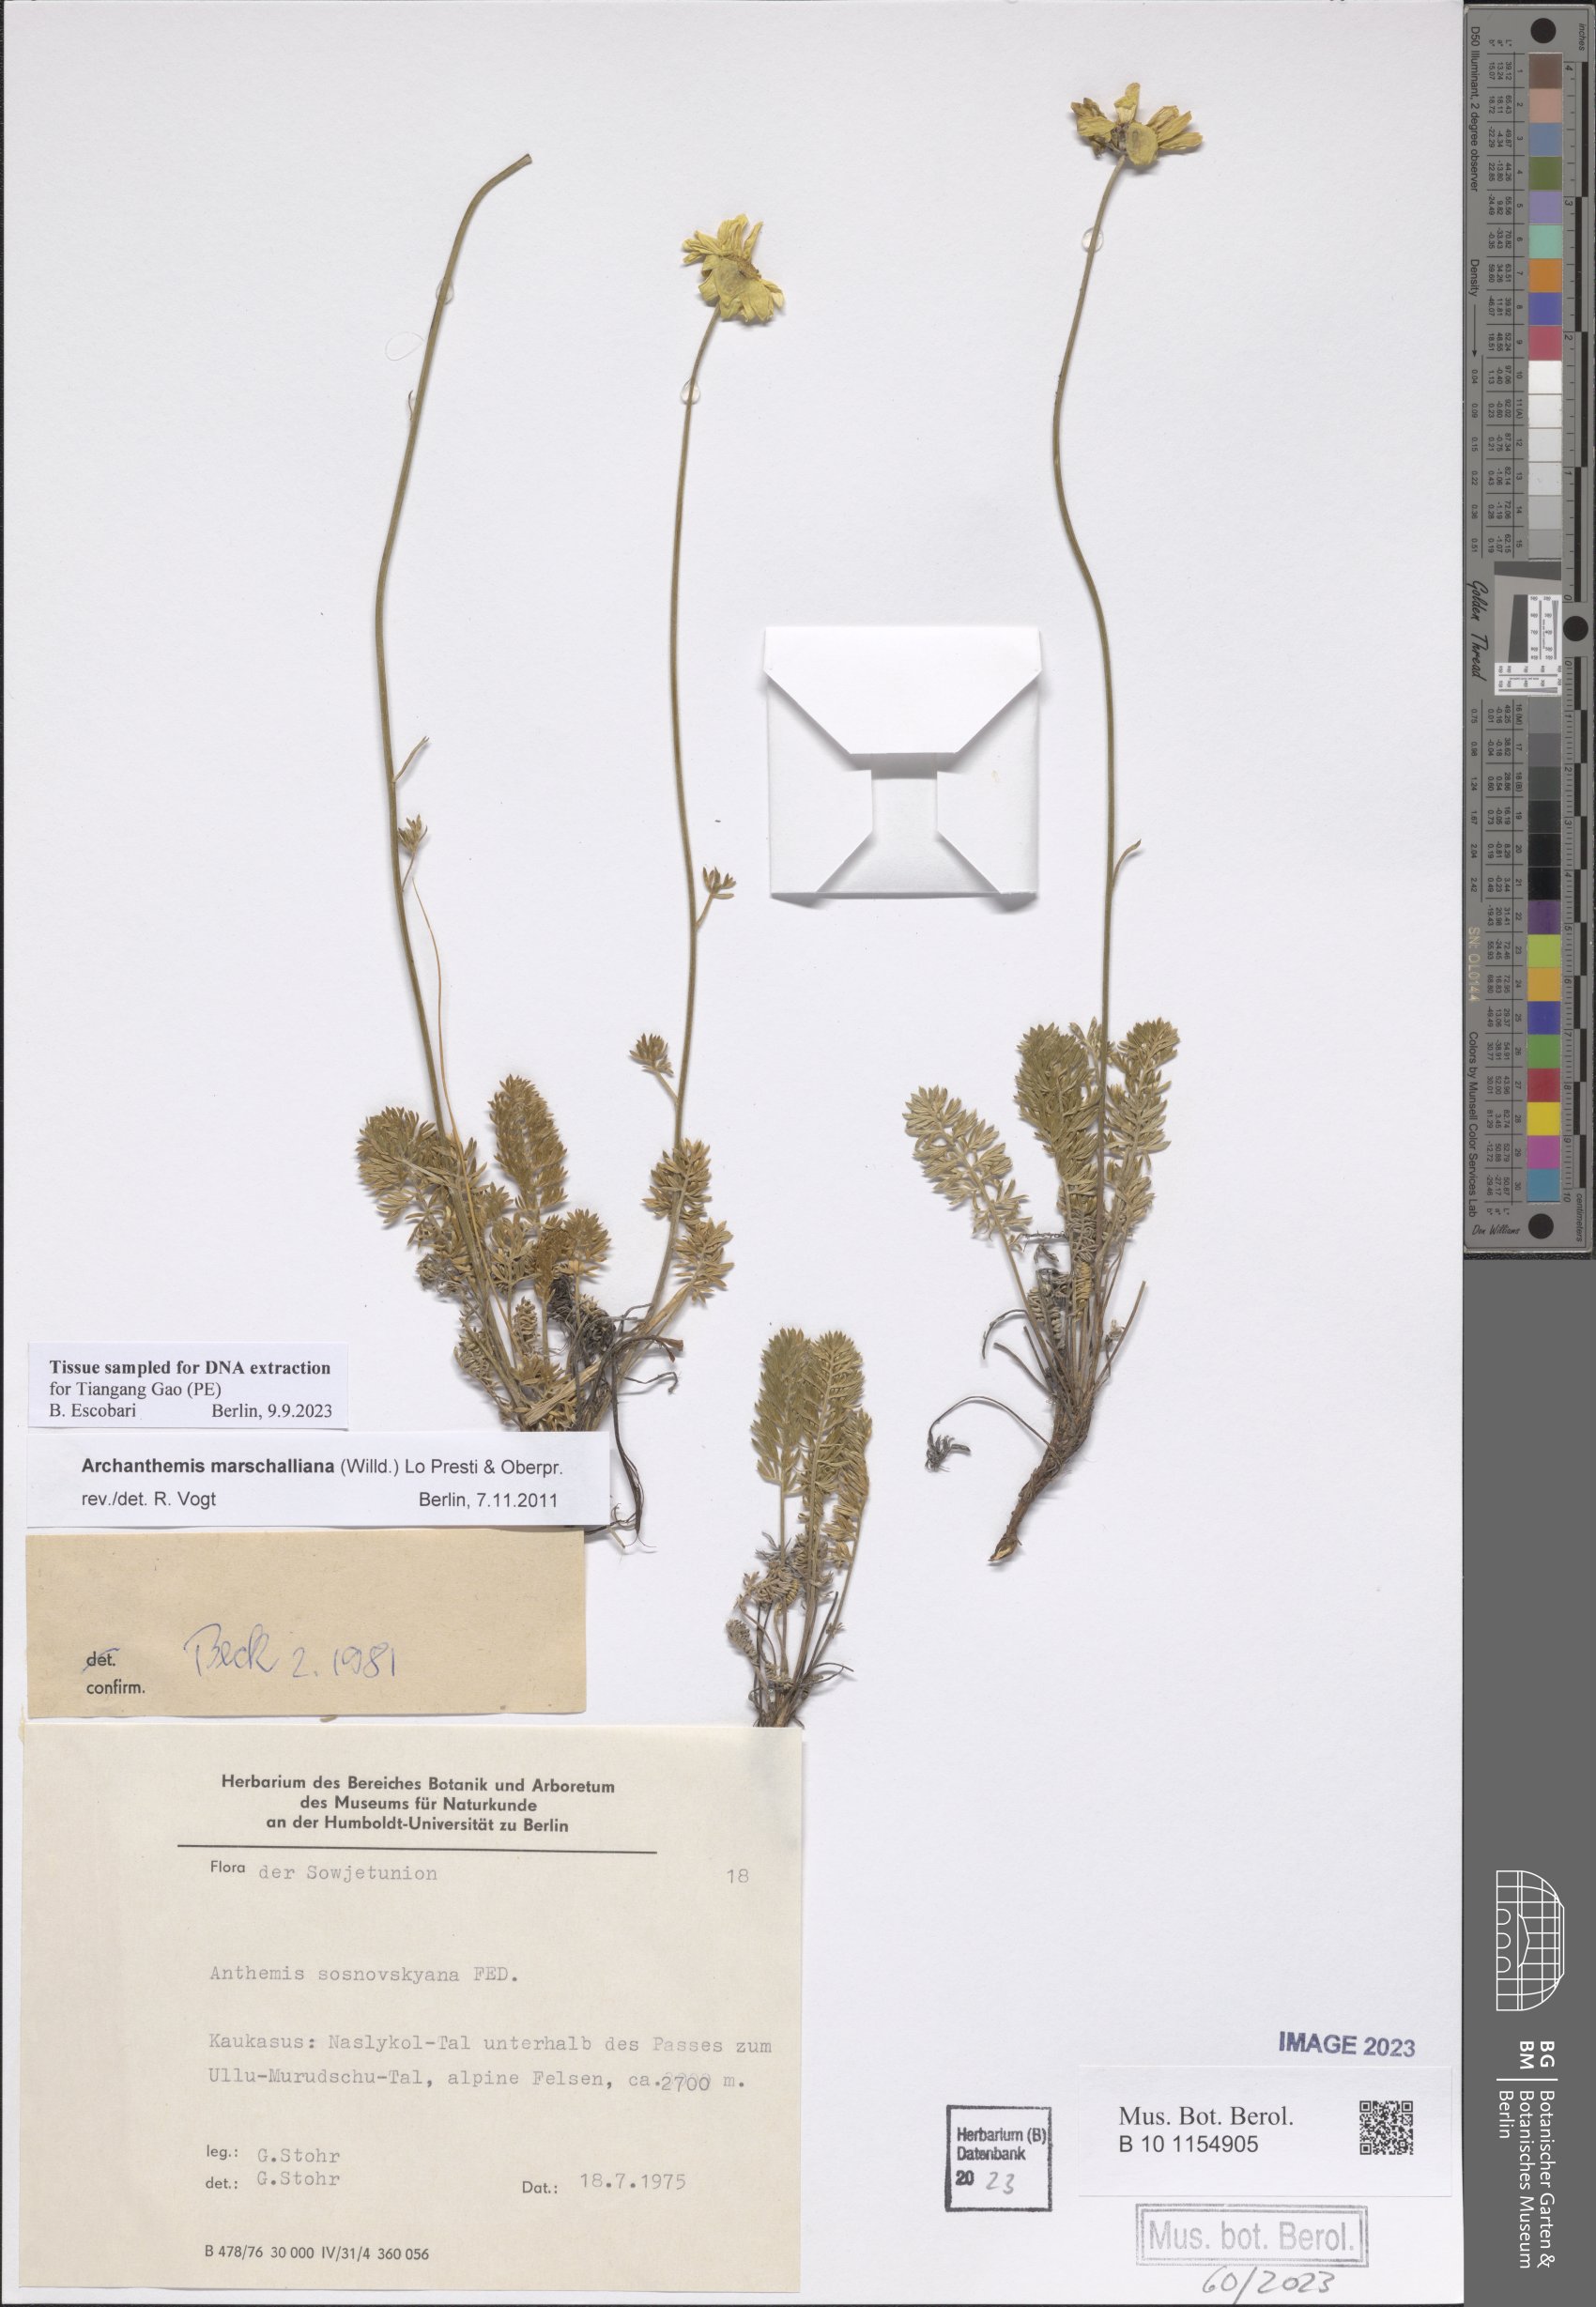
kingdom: Plantae
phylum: Tracheophyta
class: Magnoliopsida
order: Asterales
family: Asteraceae
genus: Archanthemis
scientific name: Archanthemis marschalliana
